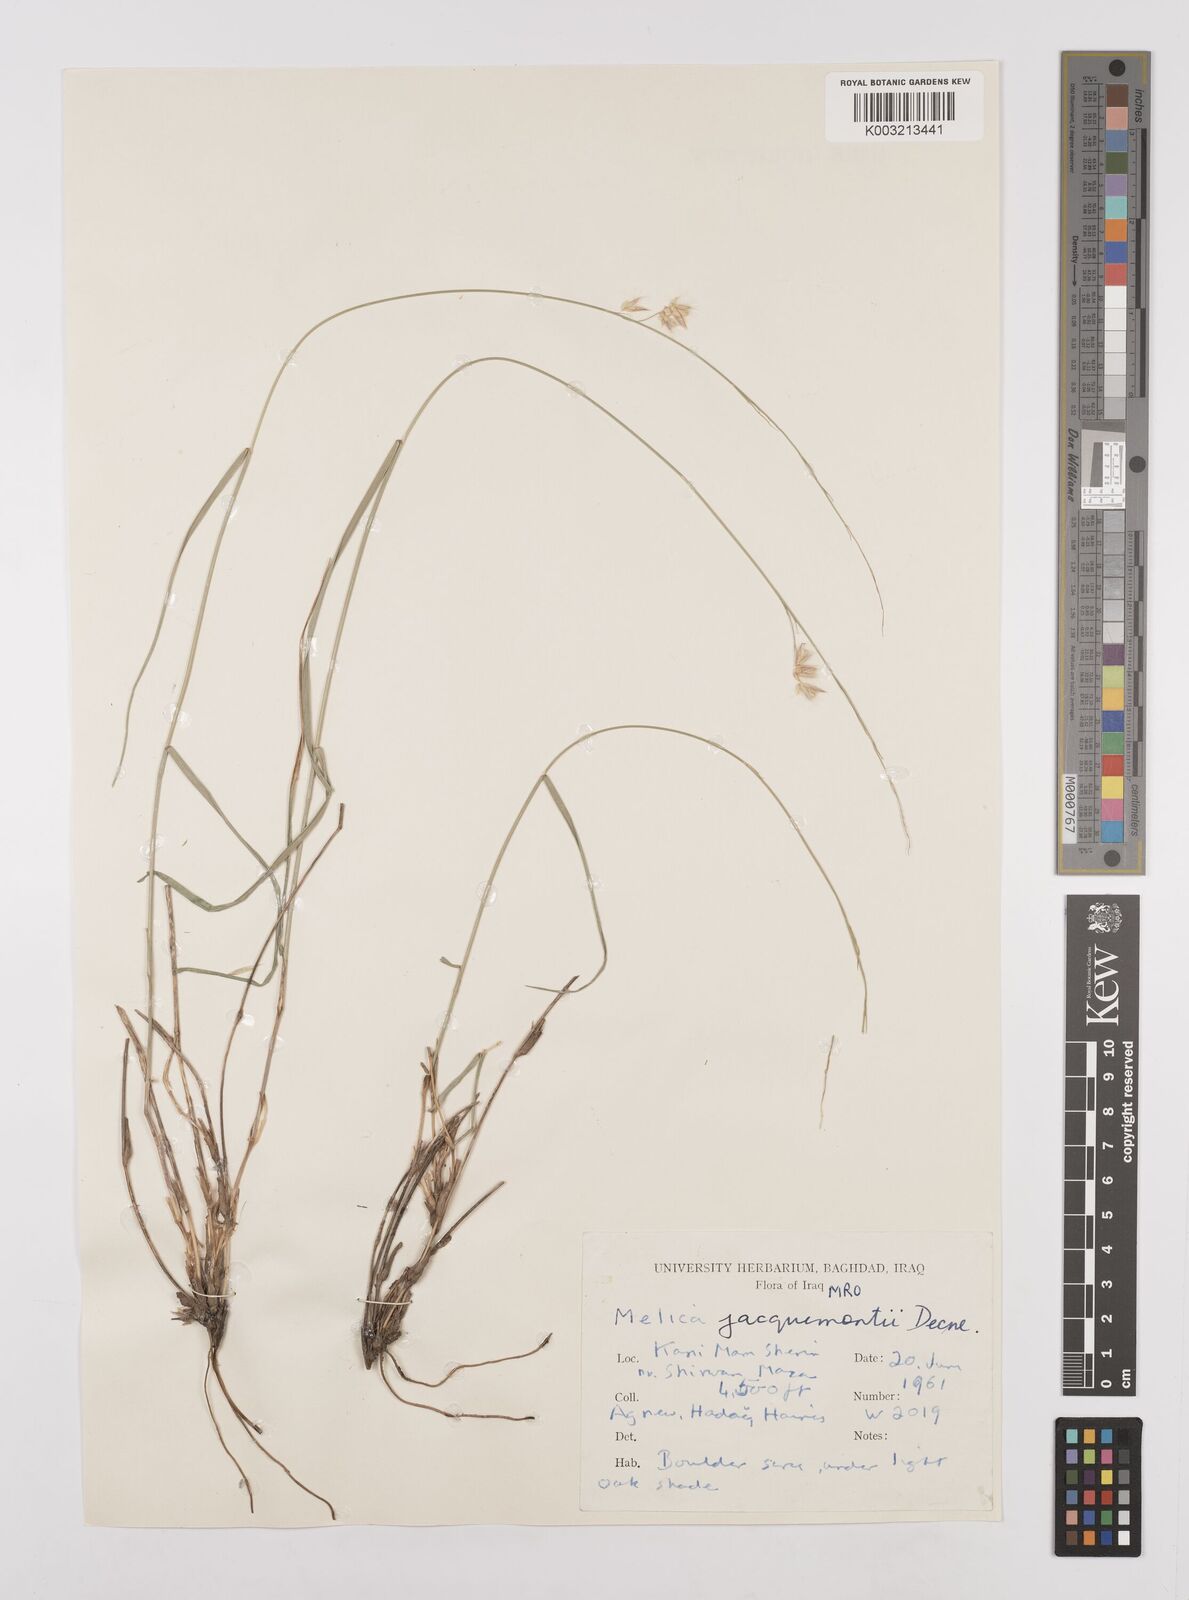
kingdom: Plantae
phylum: Tracheophyta
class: Liliopsida
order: Poales
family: Poaceae
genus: Melica
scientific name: Melica persica
